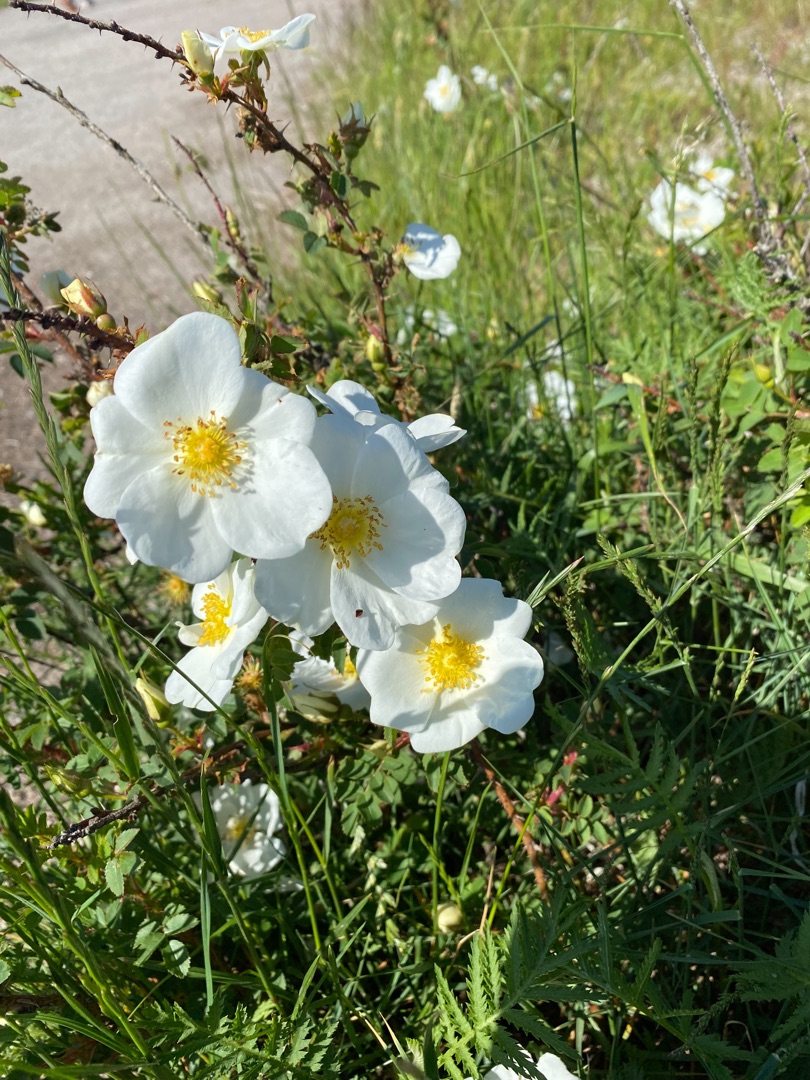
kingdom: Plantae
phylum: Tracheophyta
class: Magnoliopsida
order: Rosales
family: Rosaceae
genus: Rosa
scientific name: Rosa spinosissima
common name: Klit-rose
